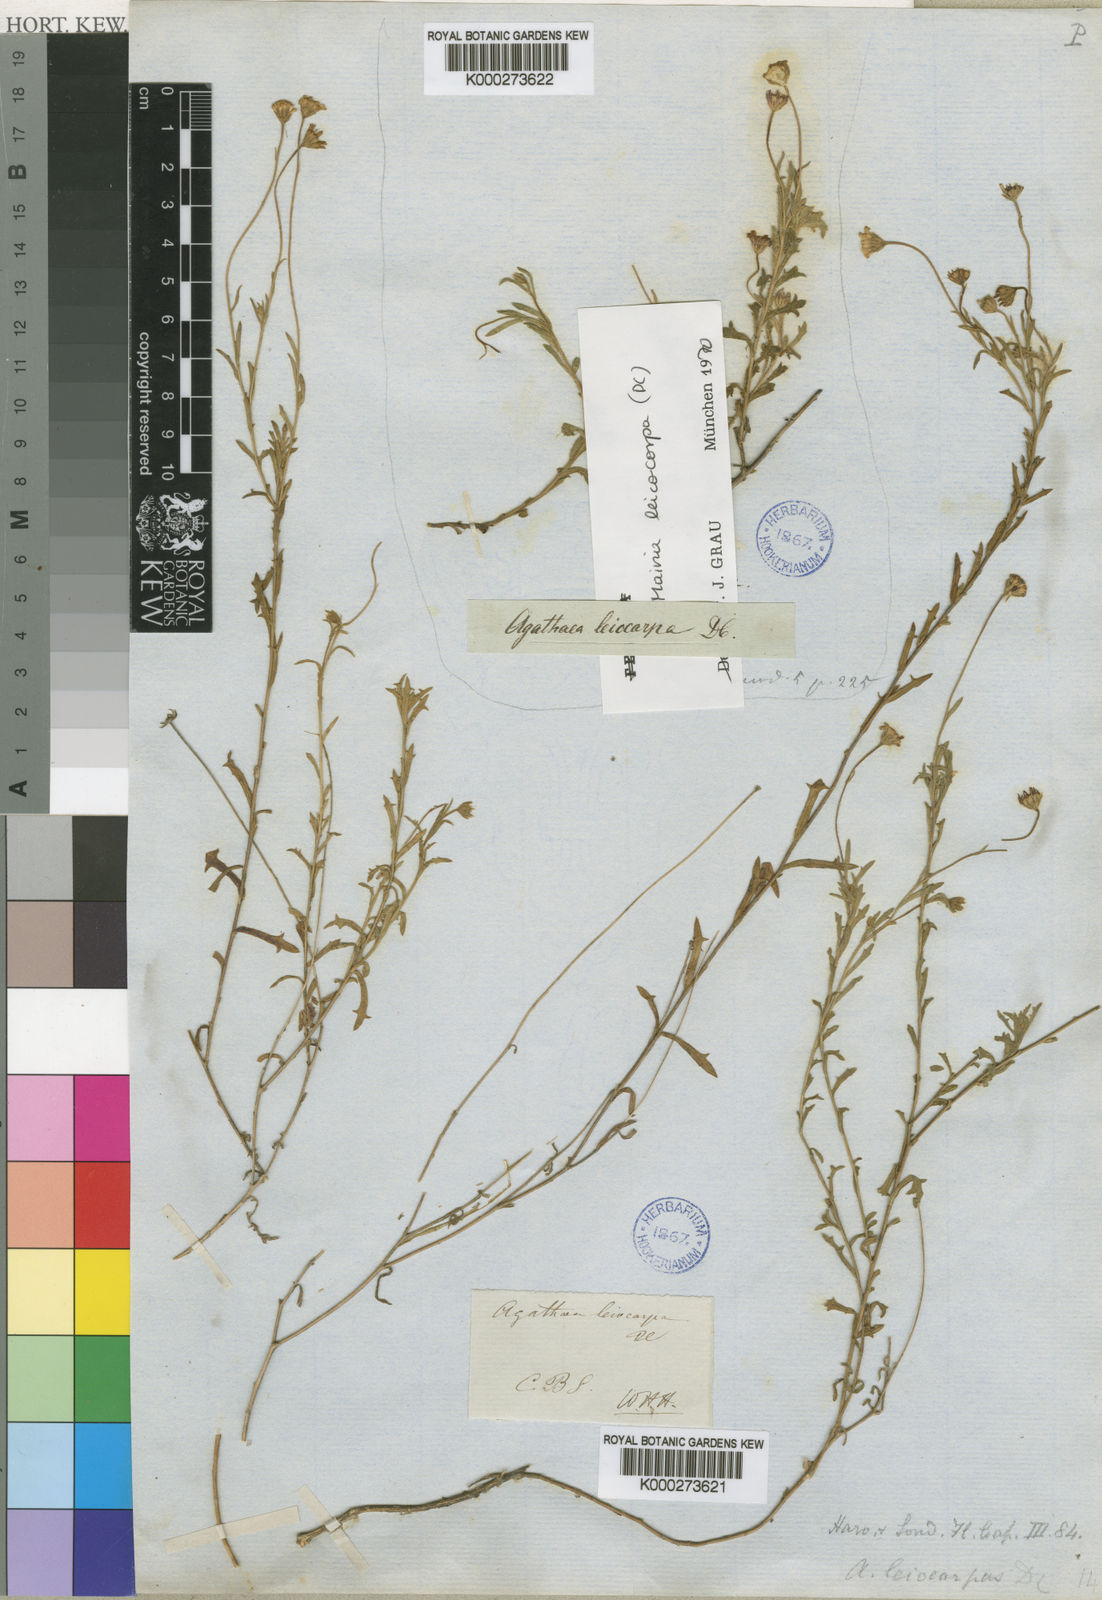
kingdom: Plantae
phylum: Tracheophyta
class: Magnoliopsida
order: Asterales
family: Asteraceae
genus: Mairia
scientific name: Mairia
